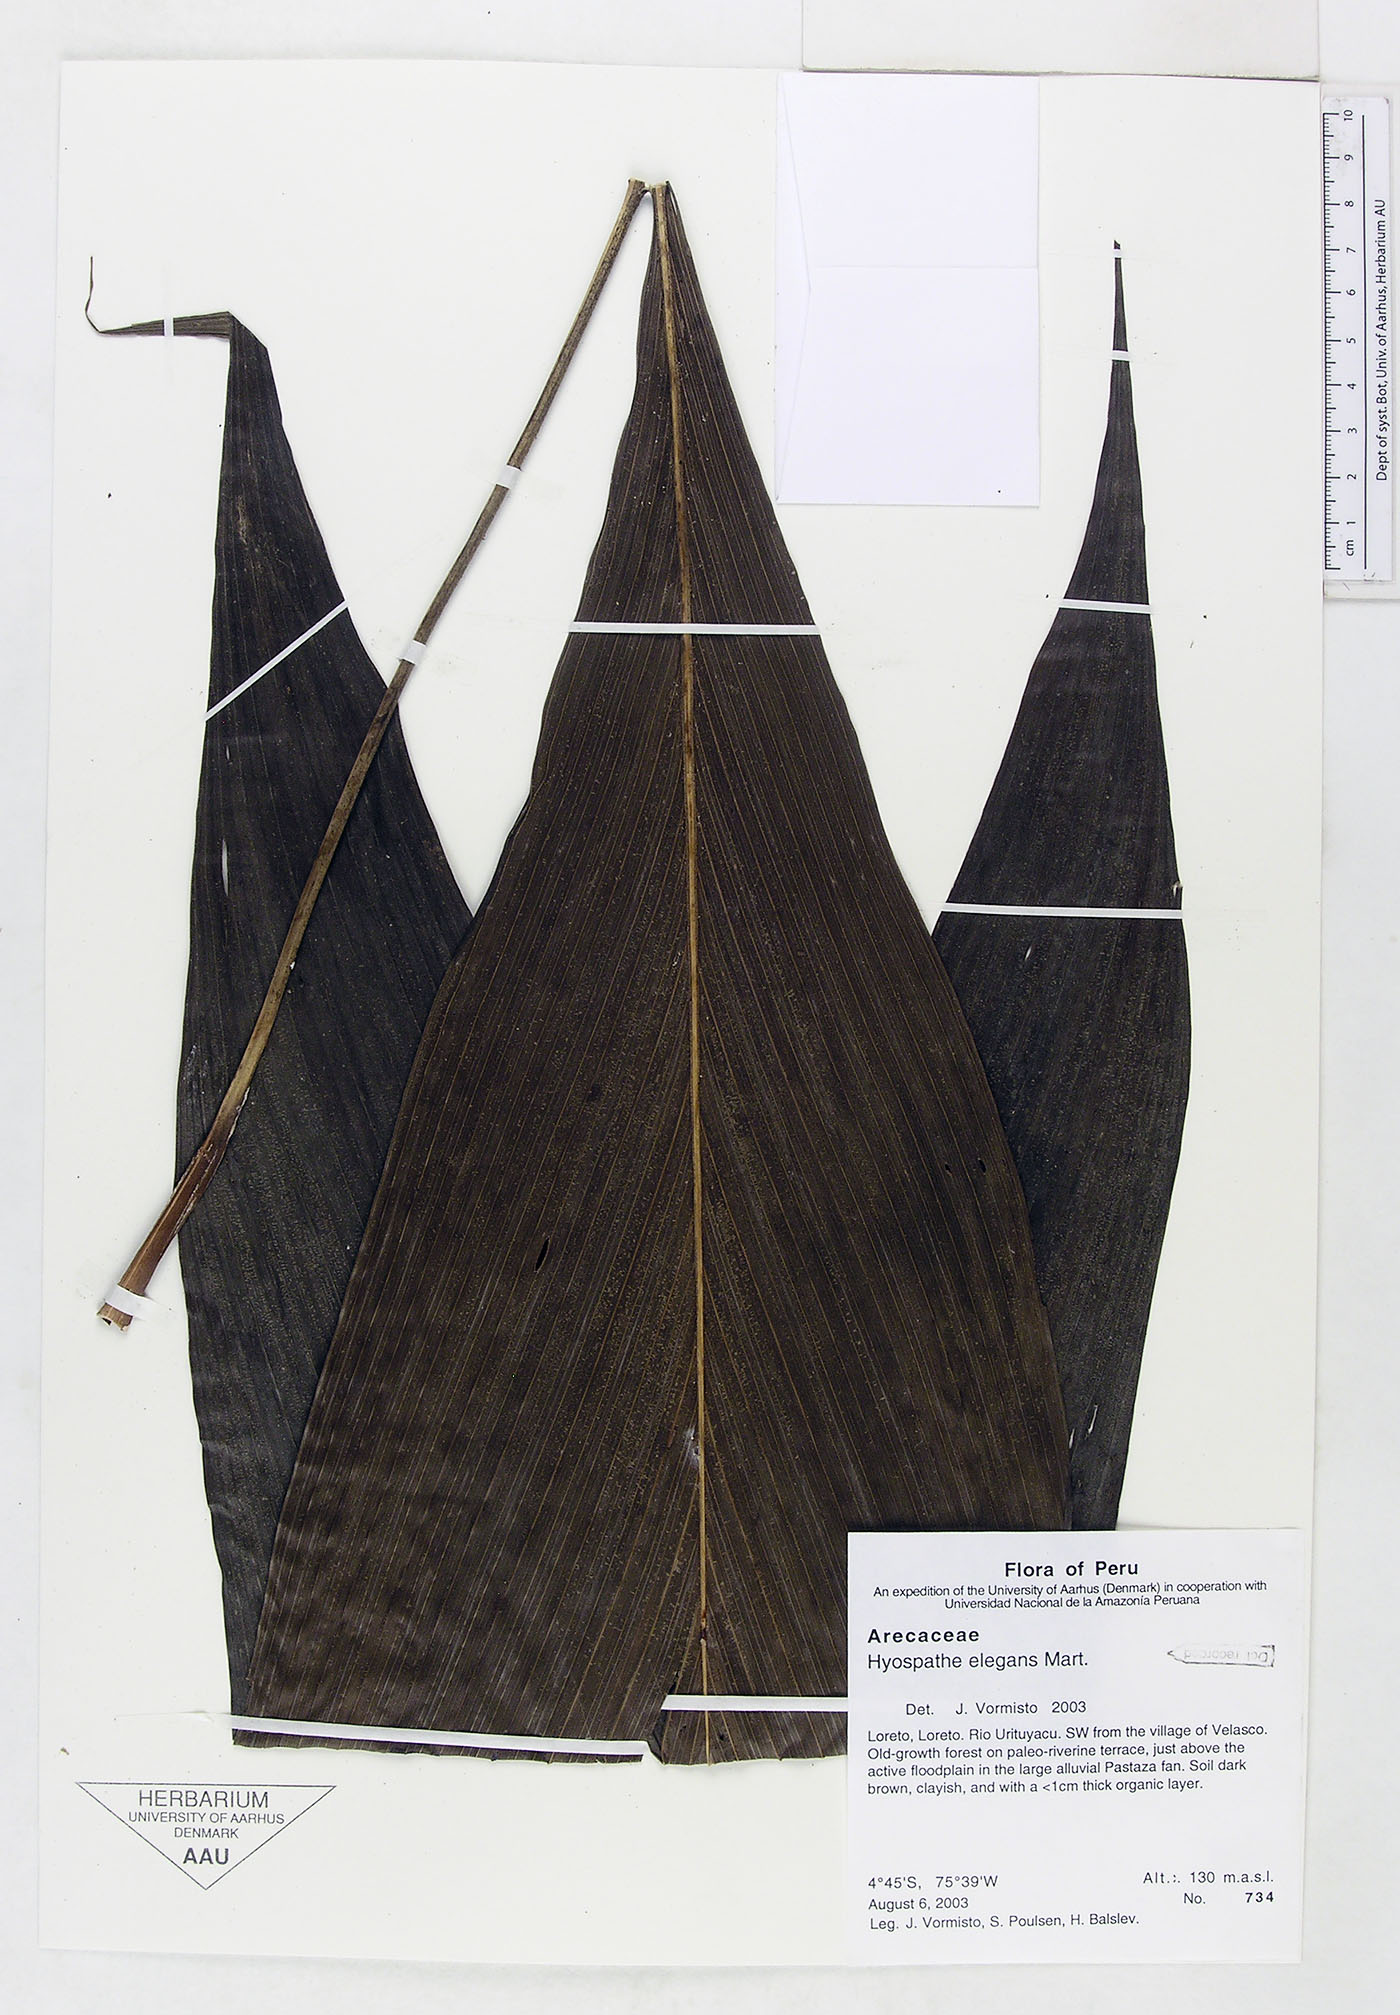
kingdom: Plantae
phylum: Tracheophyta
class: Liliopsida
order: Arecales
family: Arecaceae
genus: Hyospathe
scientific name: Hyospathe elegans
